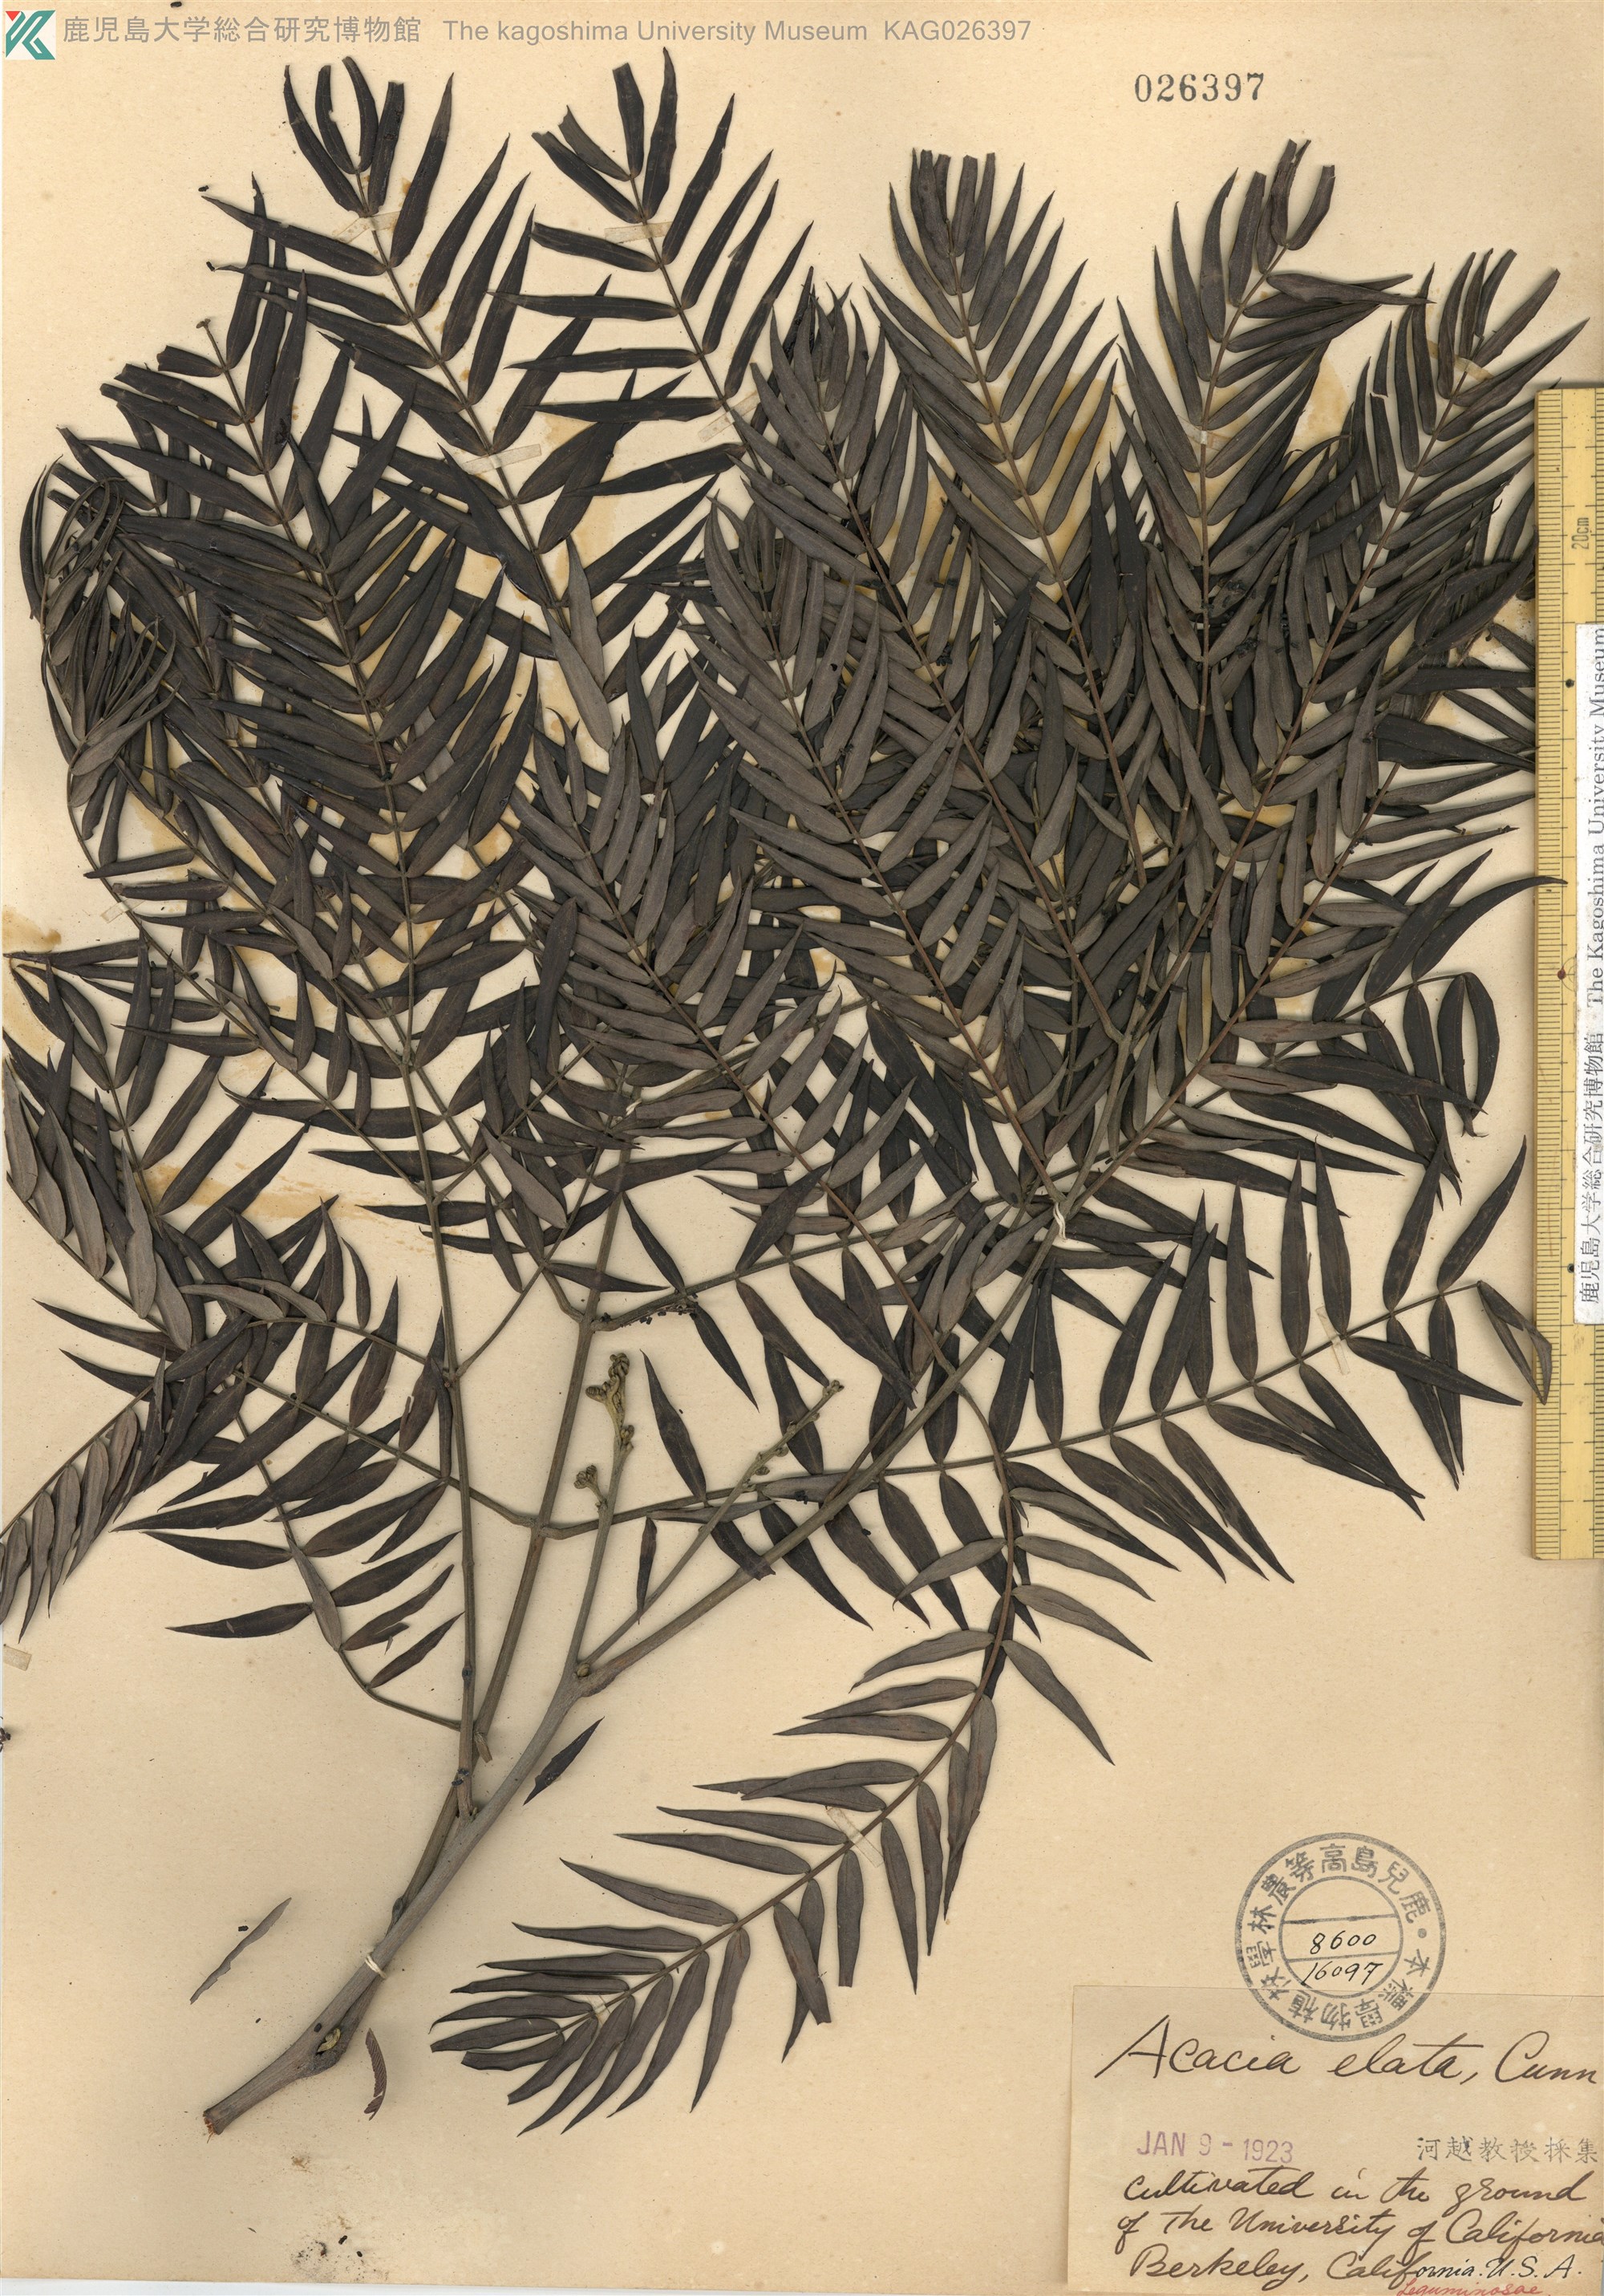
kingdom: Plantae
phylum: Tracheophyta
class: Magnoliopsida
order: Fabales
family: Fabaceae
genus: Acacia
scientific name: Acacia elata
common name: Cedar wattle
